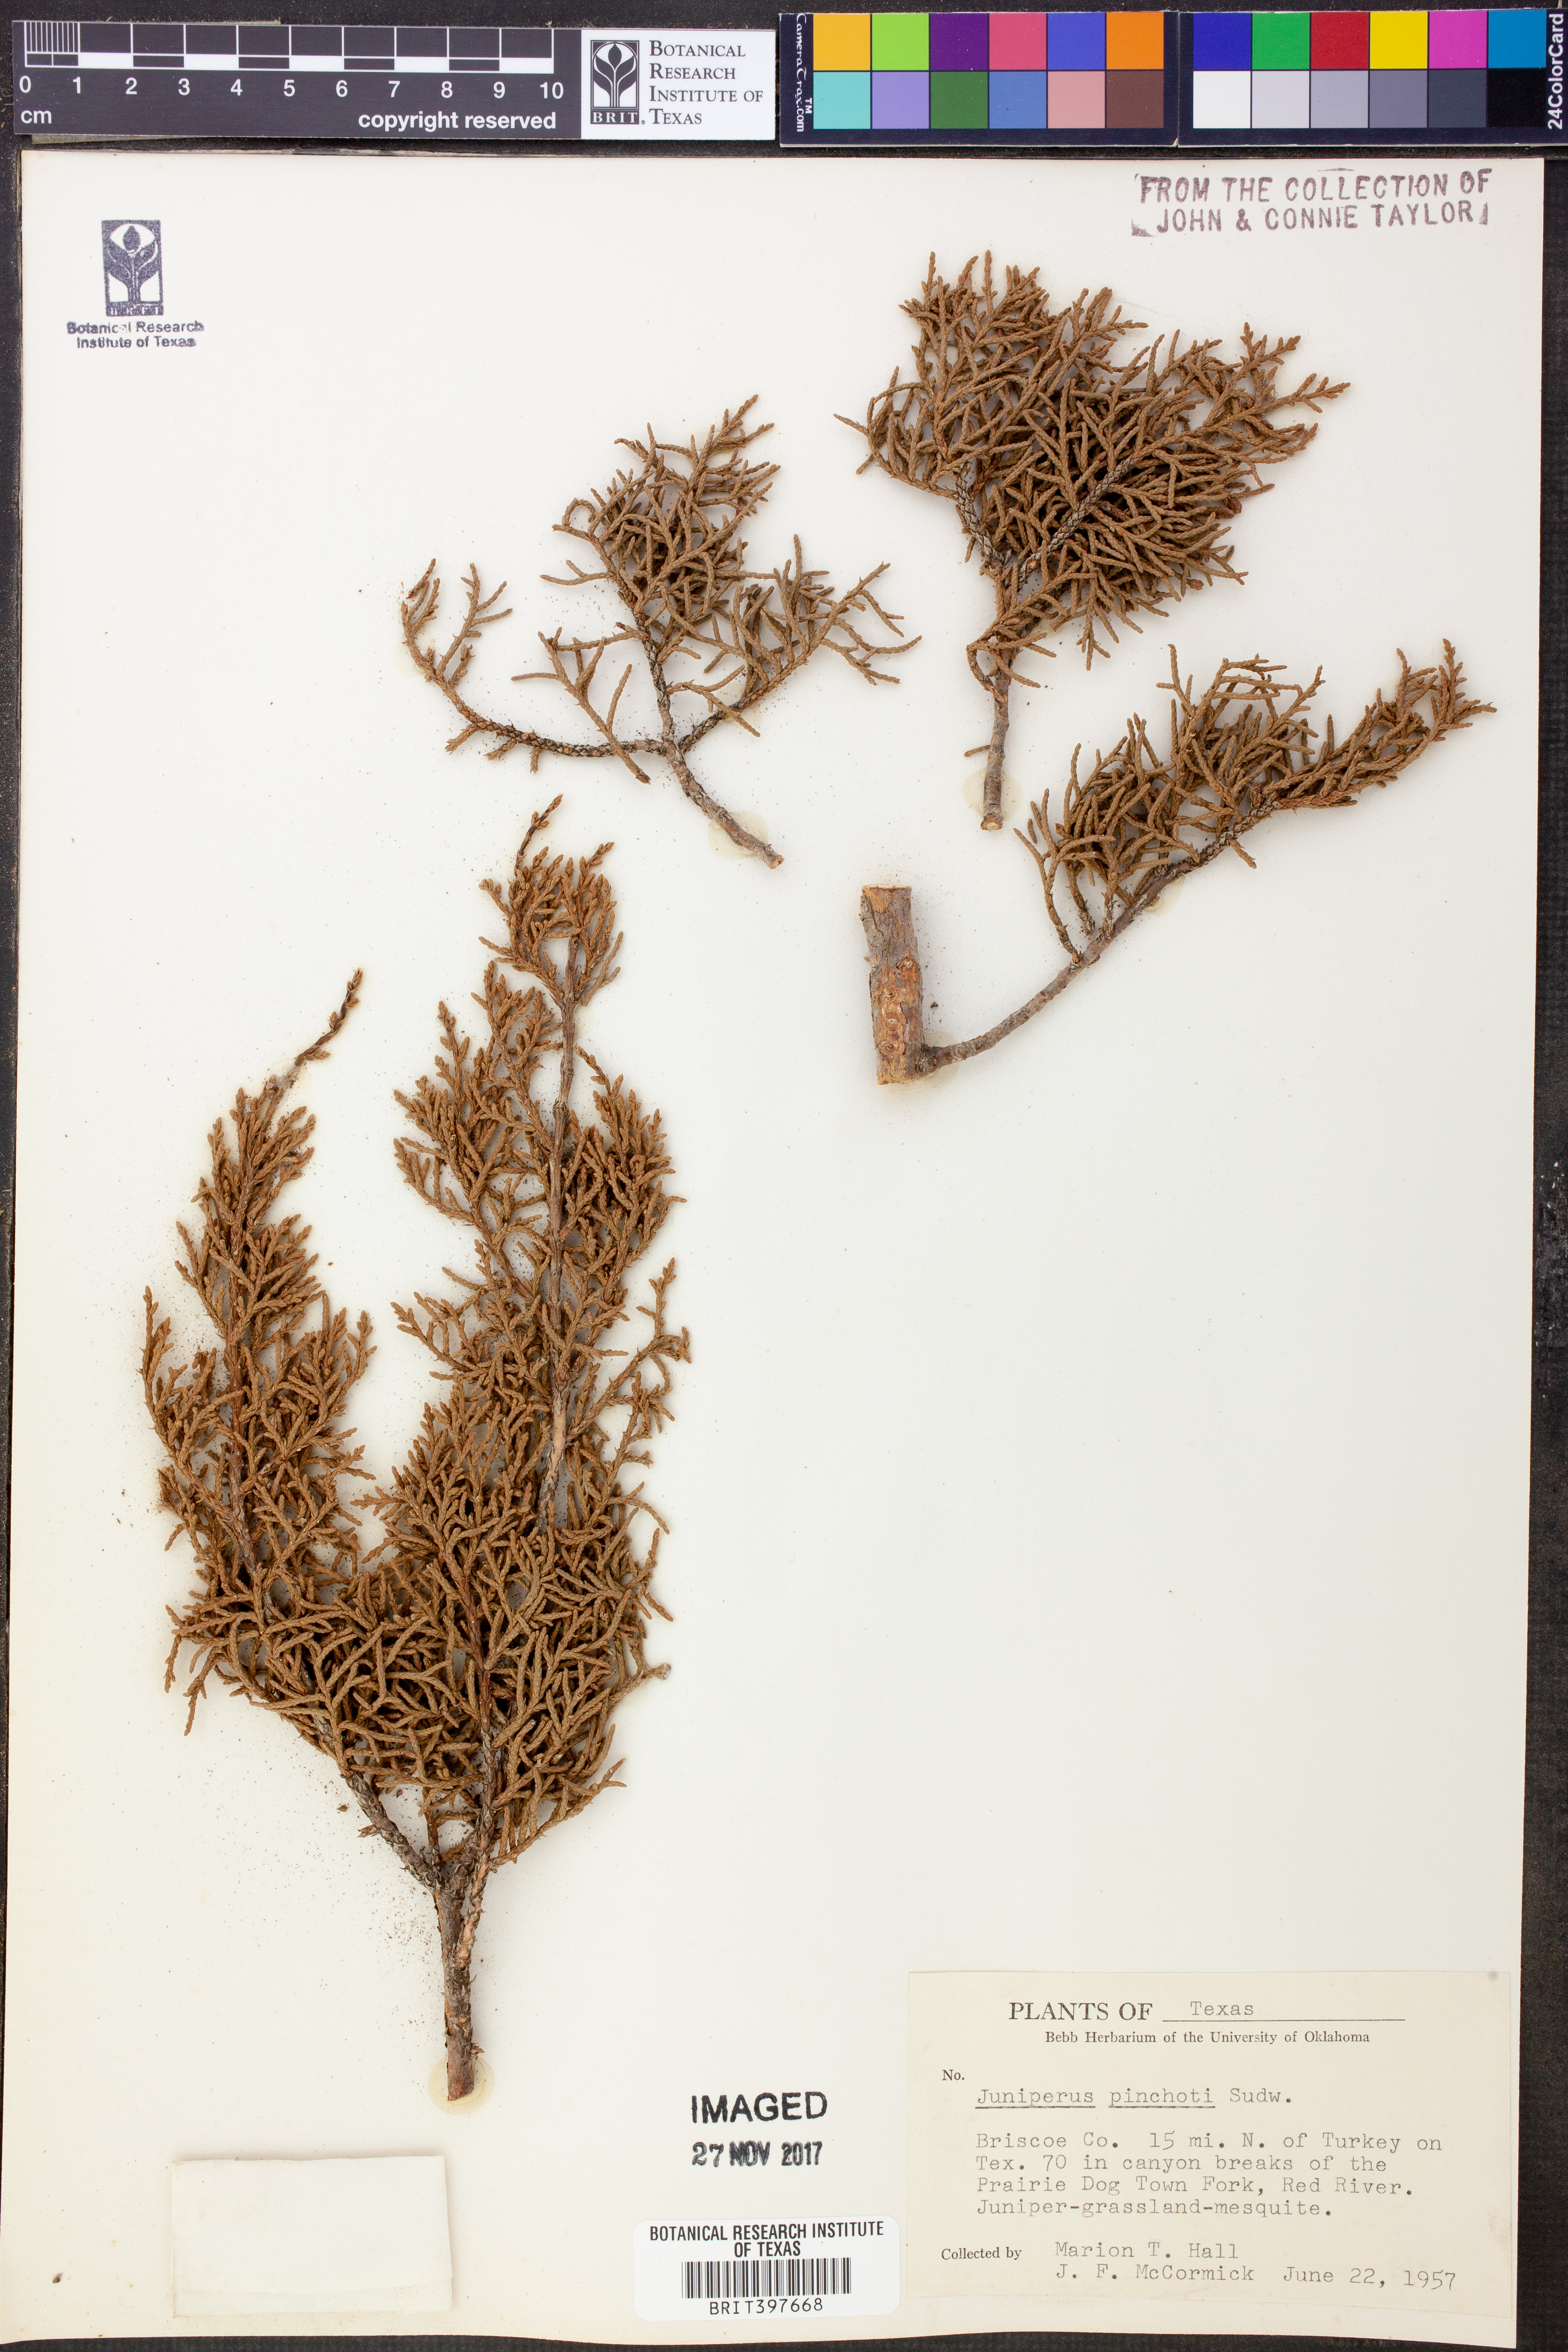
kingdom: Plantae
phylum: Tracheophyta
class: Pinopsida
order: Pinales
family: Cupressaceae
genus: Juniperus
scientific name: Juniperus pinchotii
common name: Pinchot juniper
